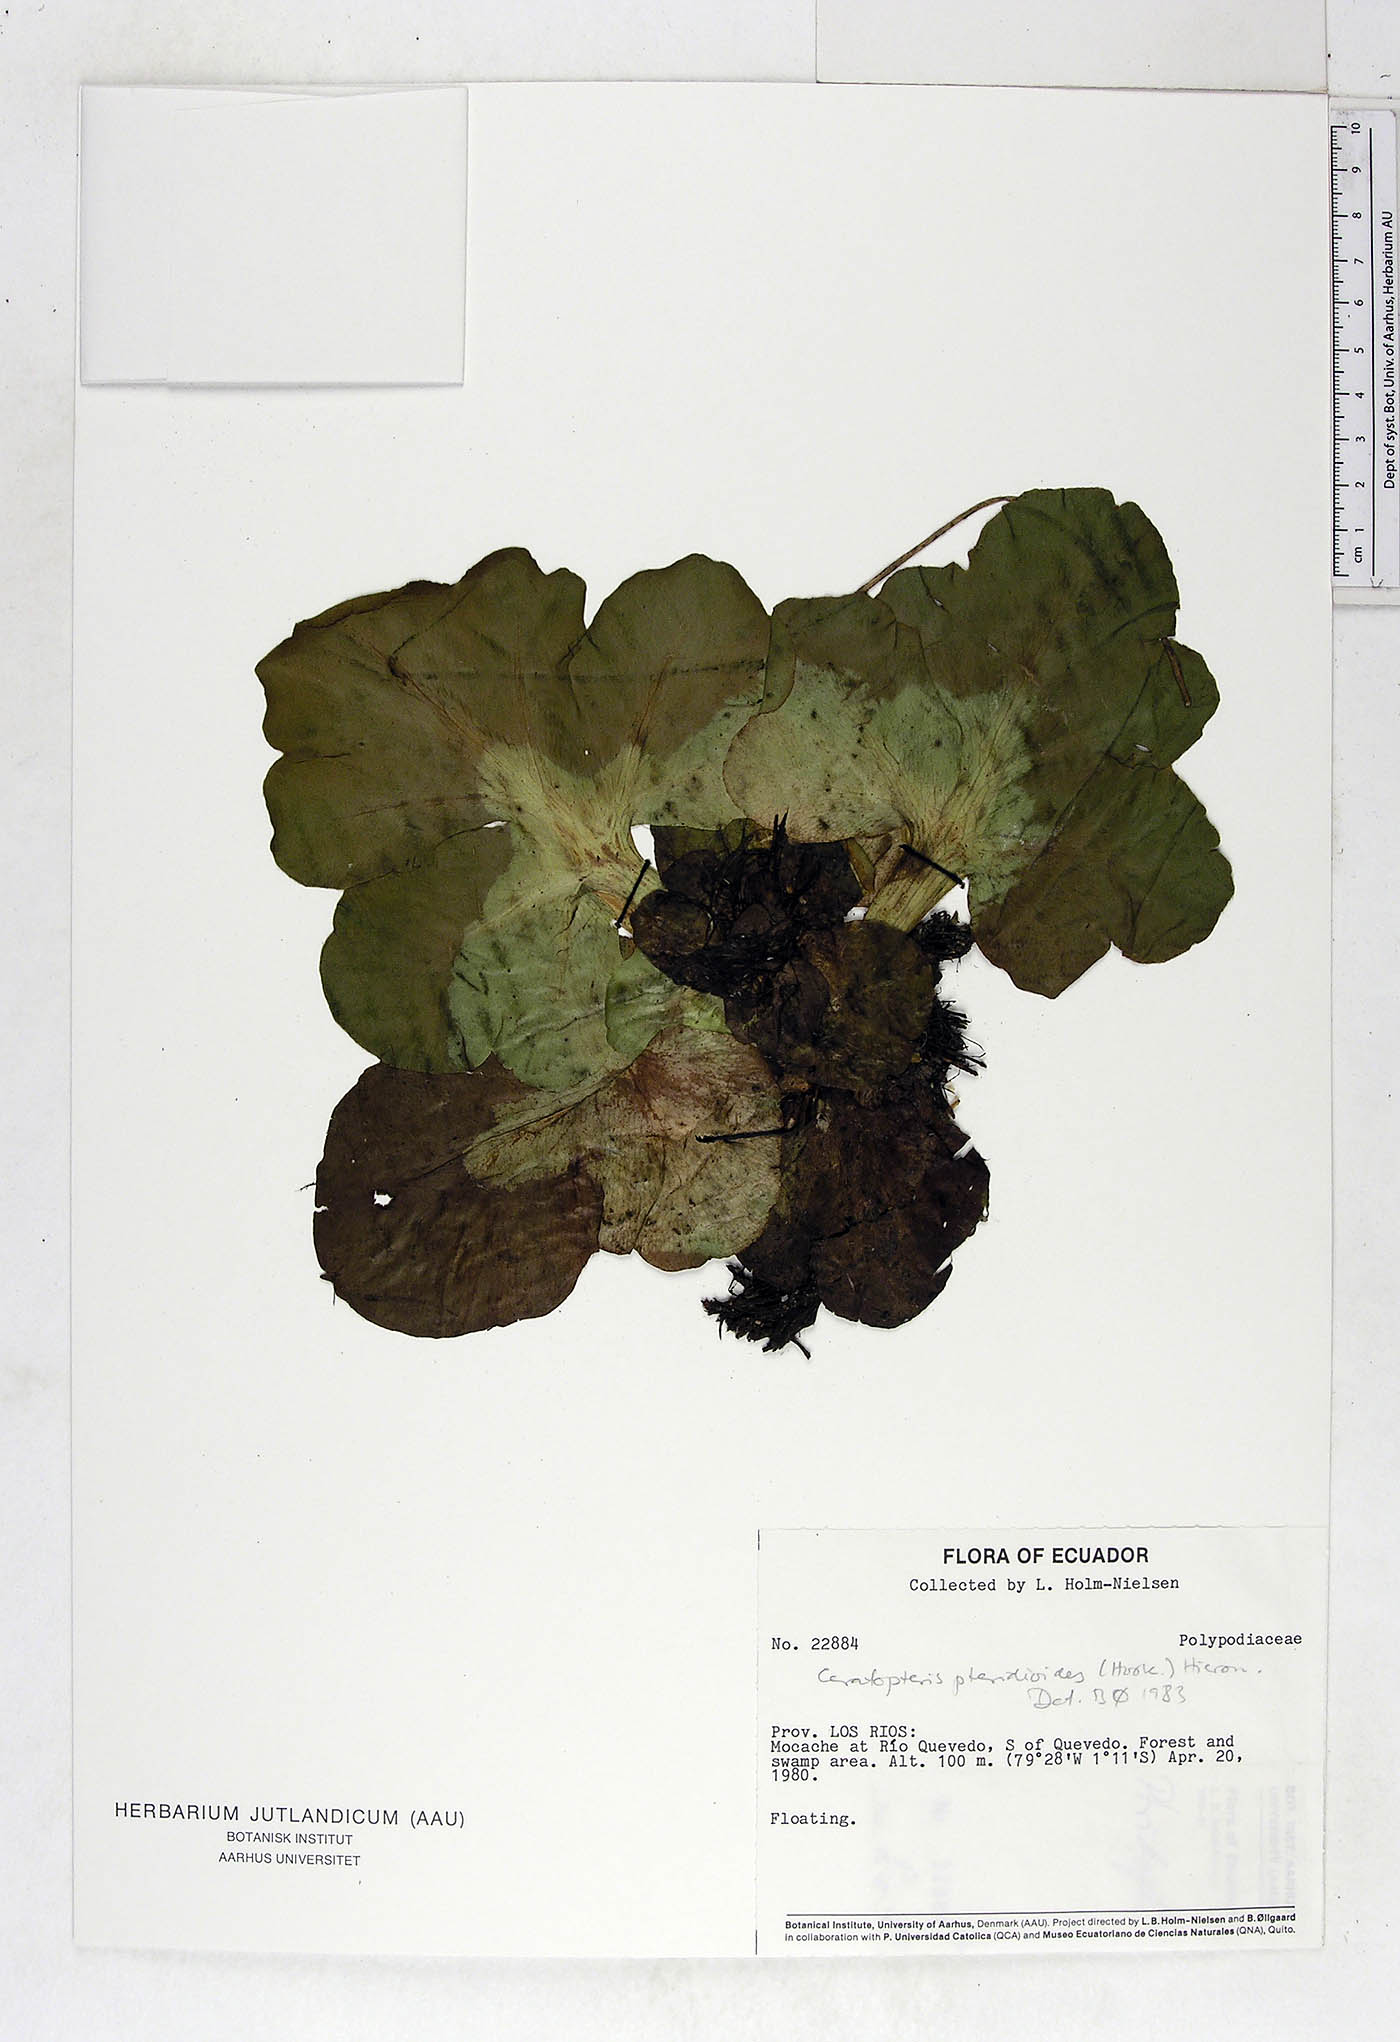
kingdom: Plantae
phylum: Tracheophyta
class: Polypodiopsida
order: Polypodiales
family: Pteridaceae
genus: Ceratopteris
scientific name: Ceratopteris pteridoides
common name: Floating fern
